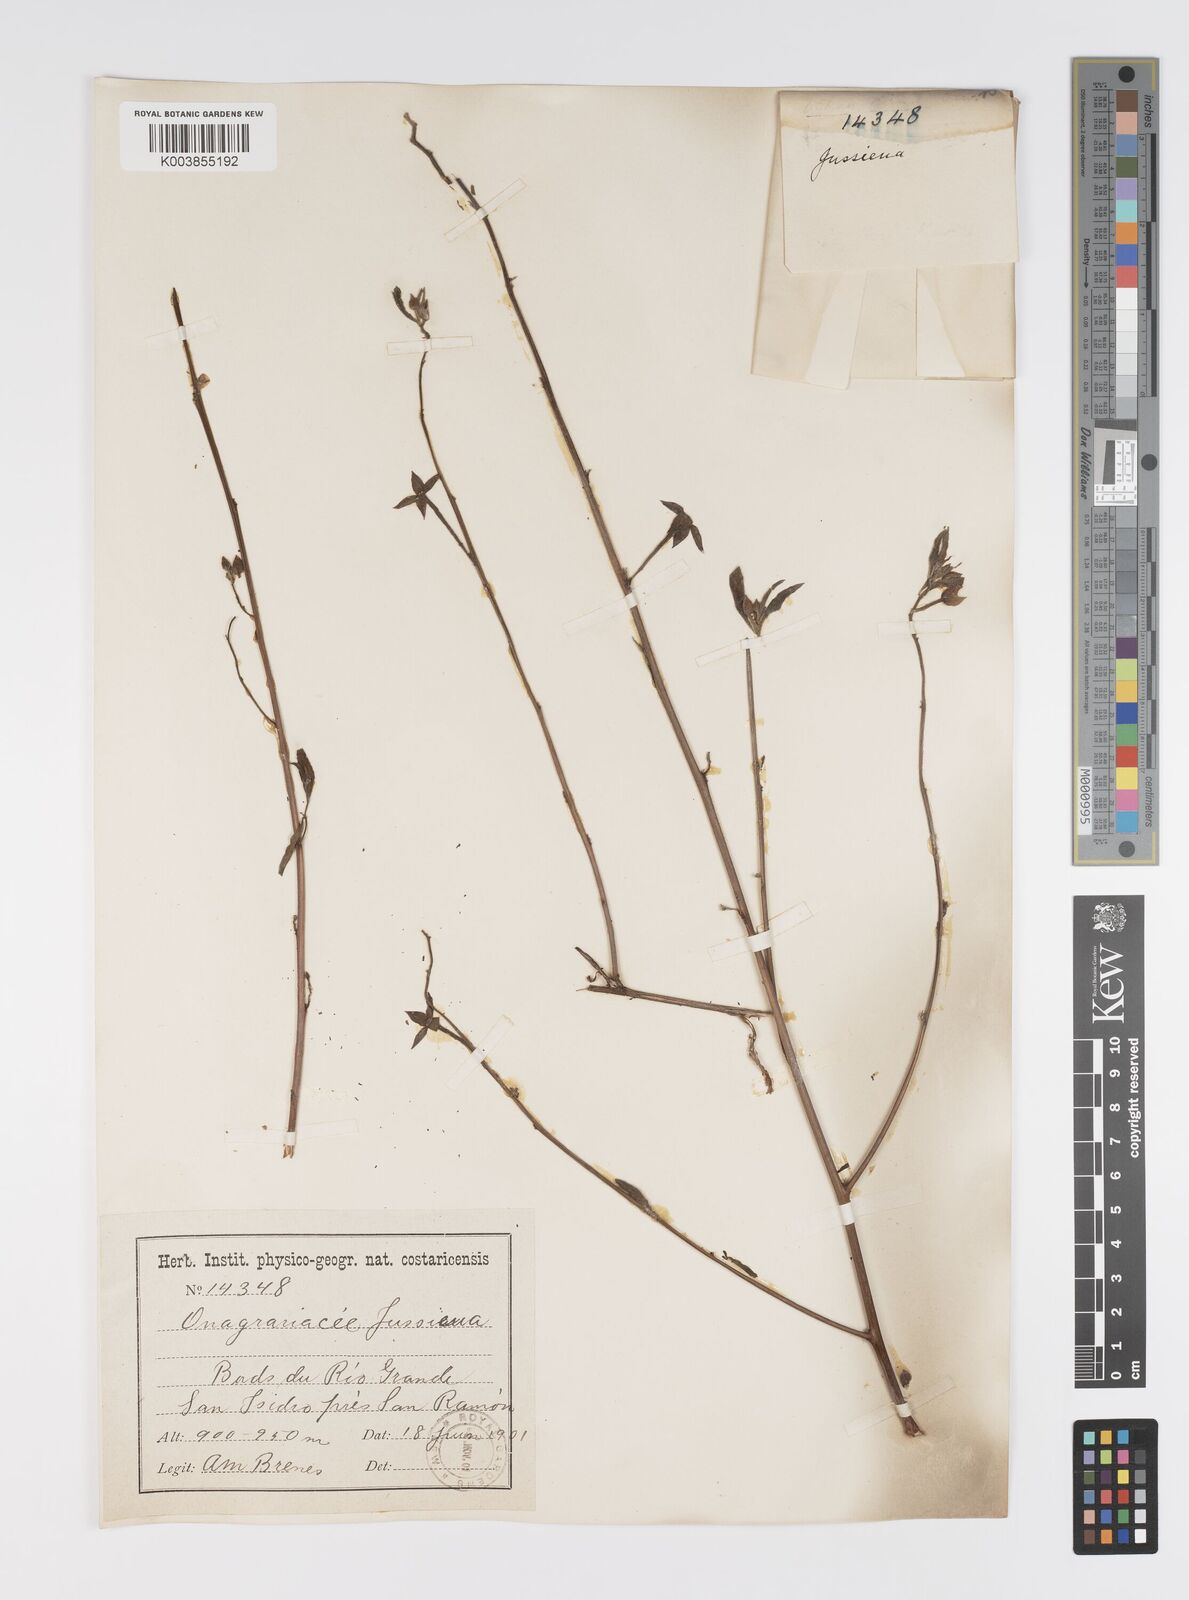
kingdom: Plantae
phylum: Tracheophyta
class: Magnoliopsida
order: Myrtales
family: Onagraceae
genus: Ludwigia
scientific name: Ludwigia
